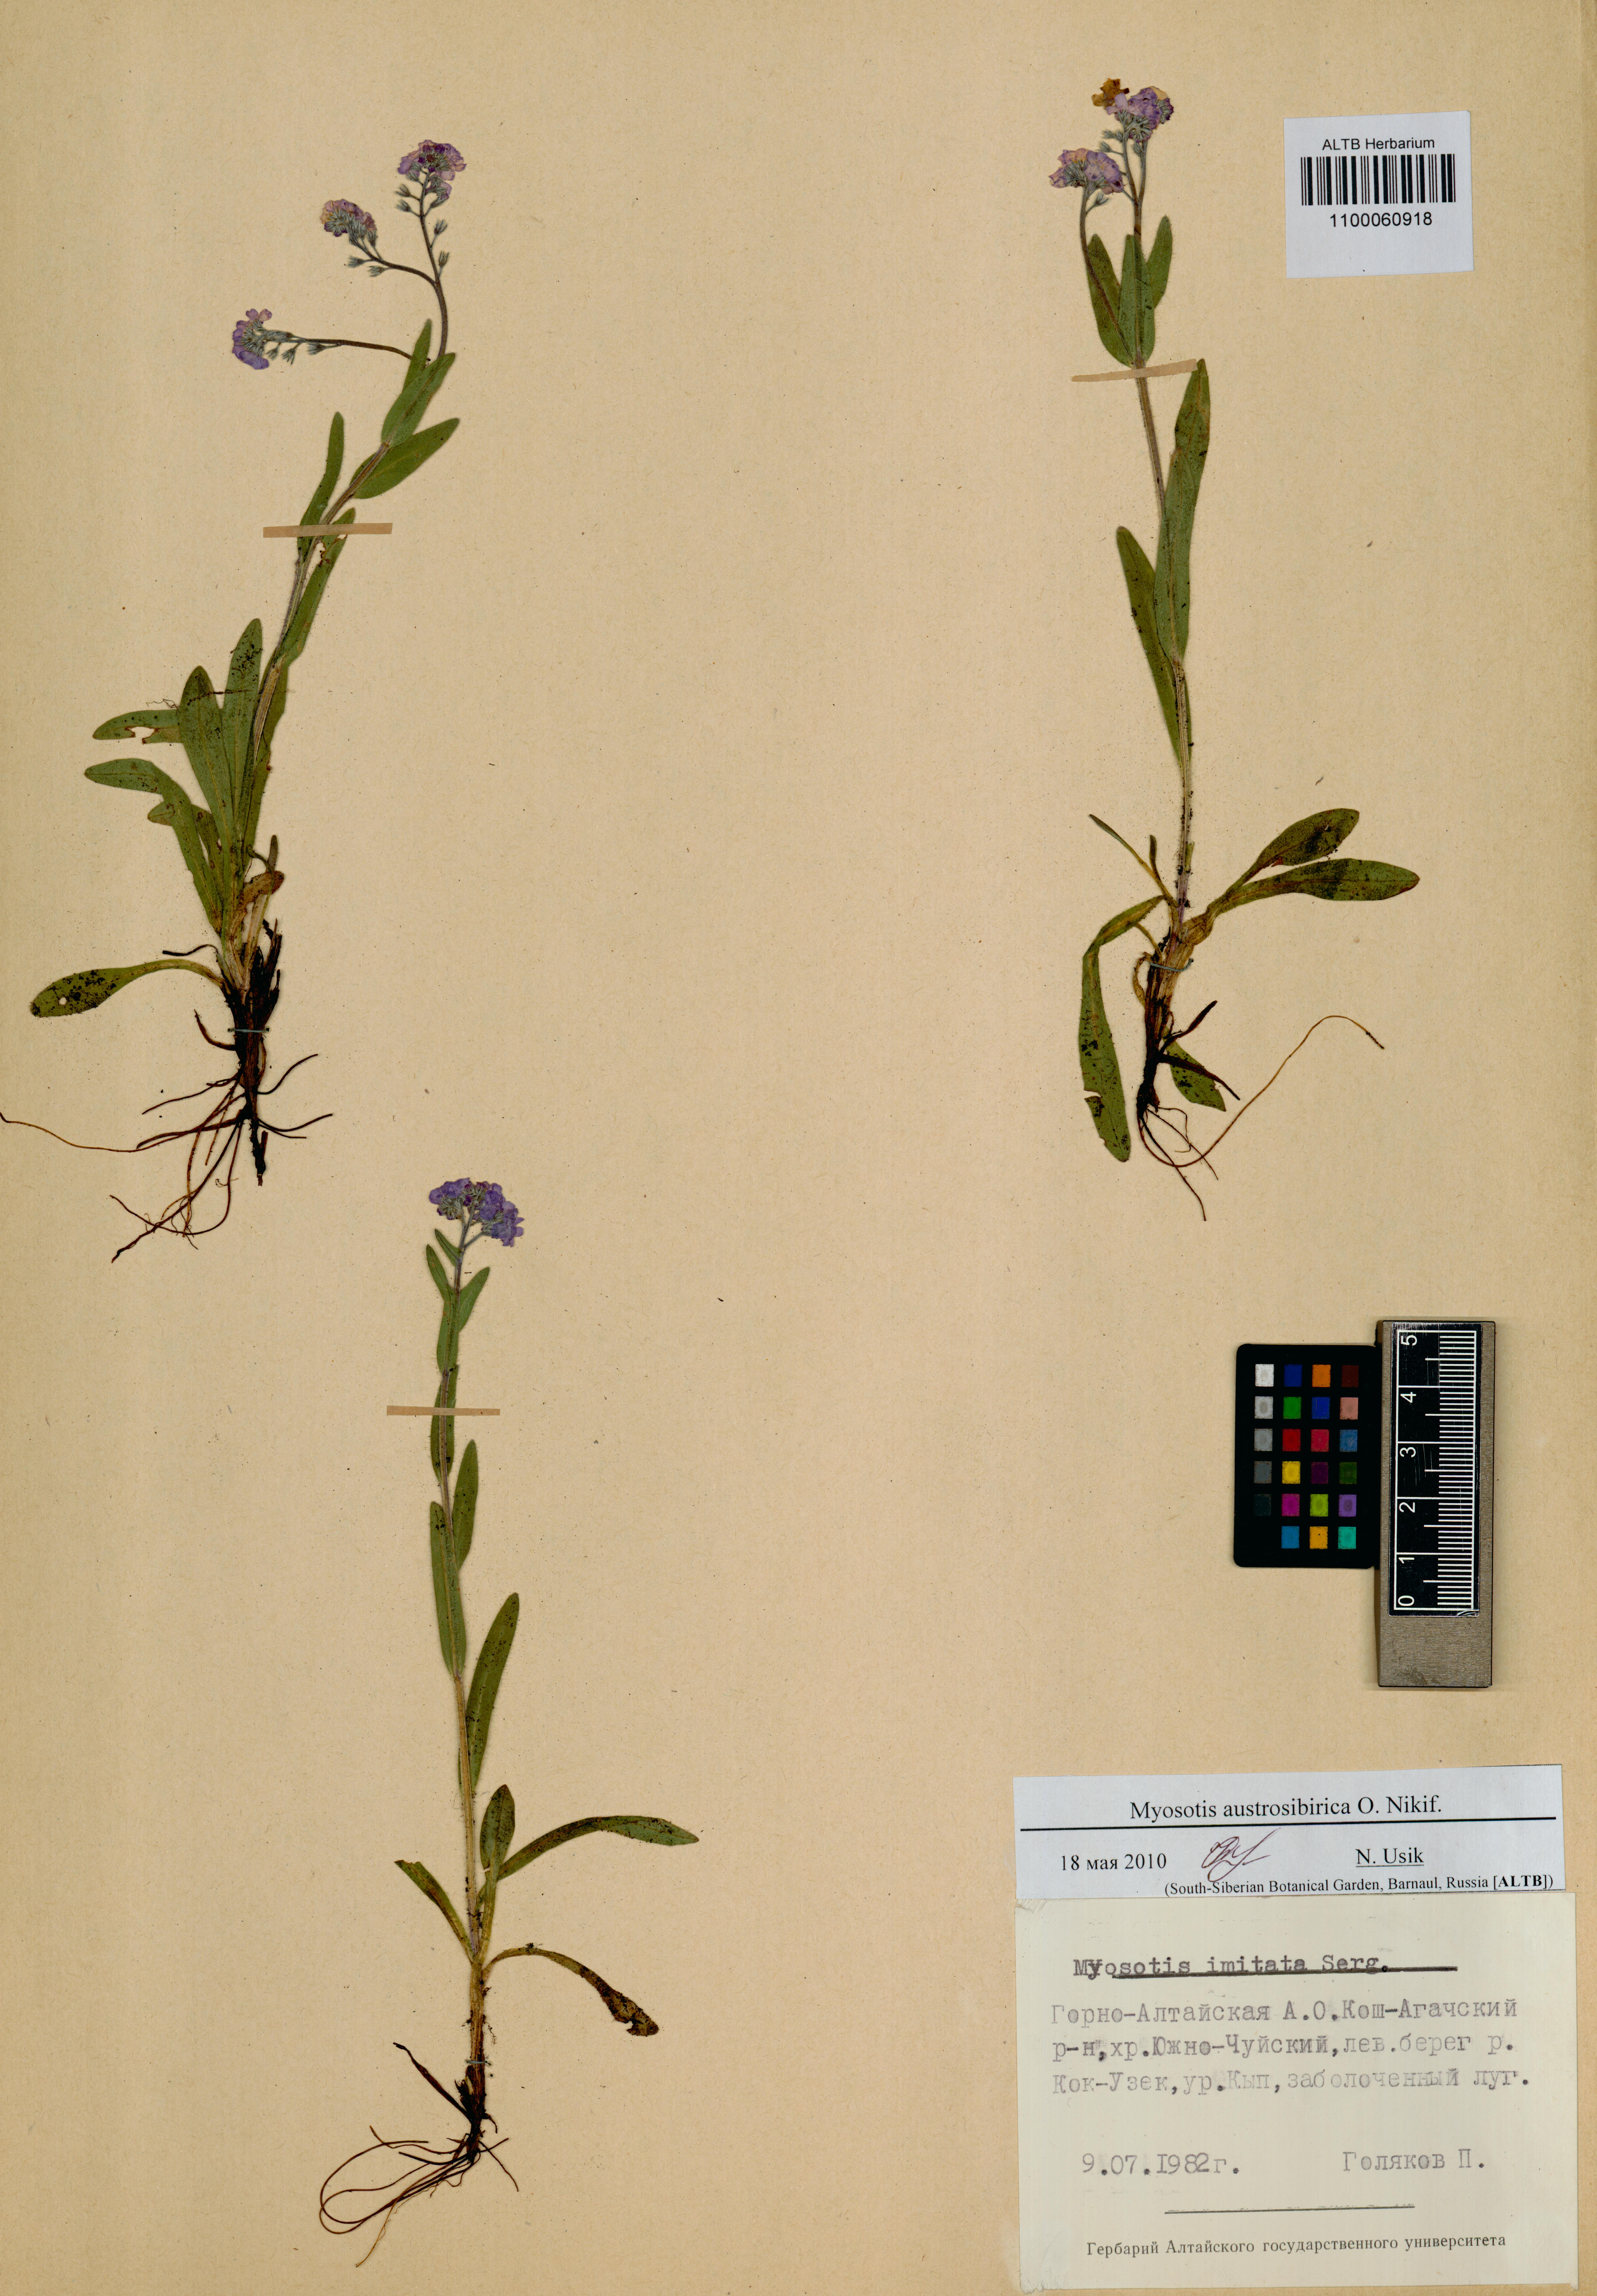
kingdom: Plantae
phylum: Tracheophyta
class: Magnoliopsida
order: Boraginales
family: Boraginaceae
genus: Myosotis
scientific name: Myosotis austrosibirica
